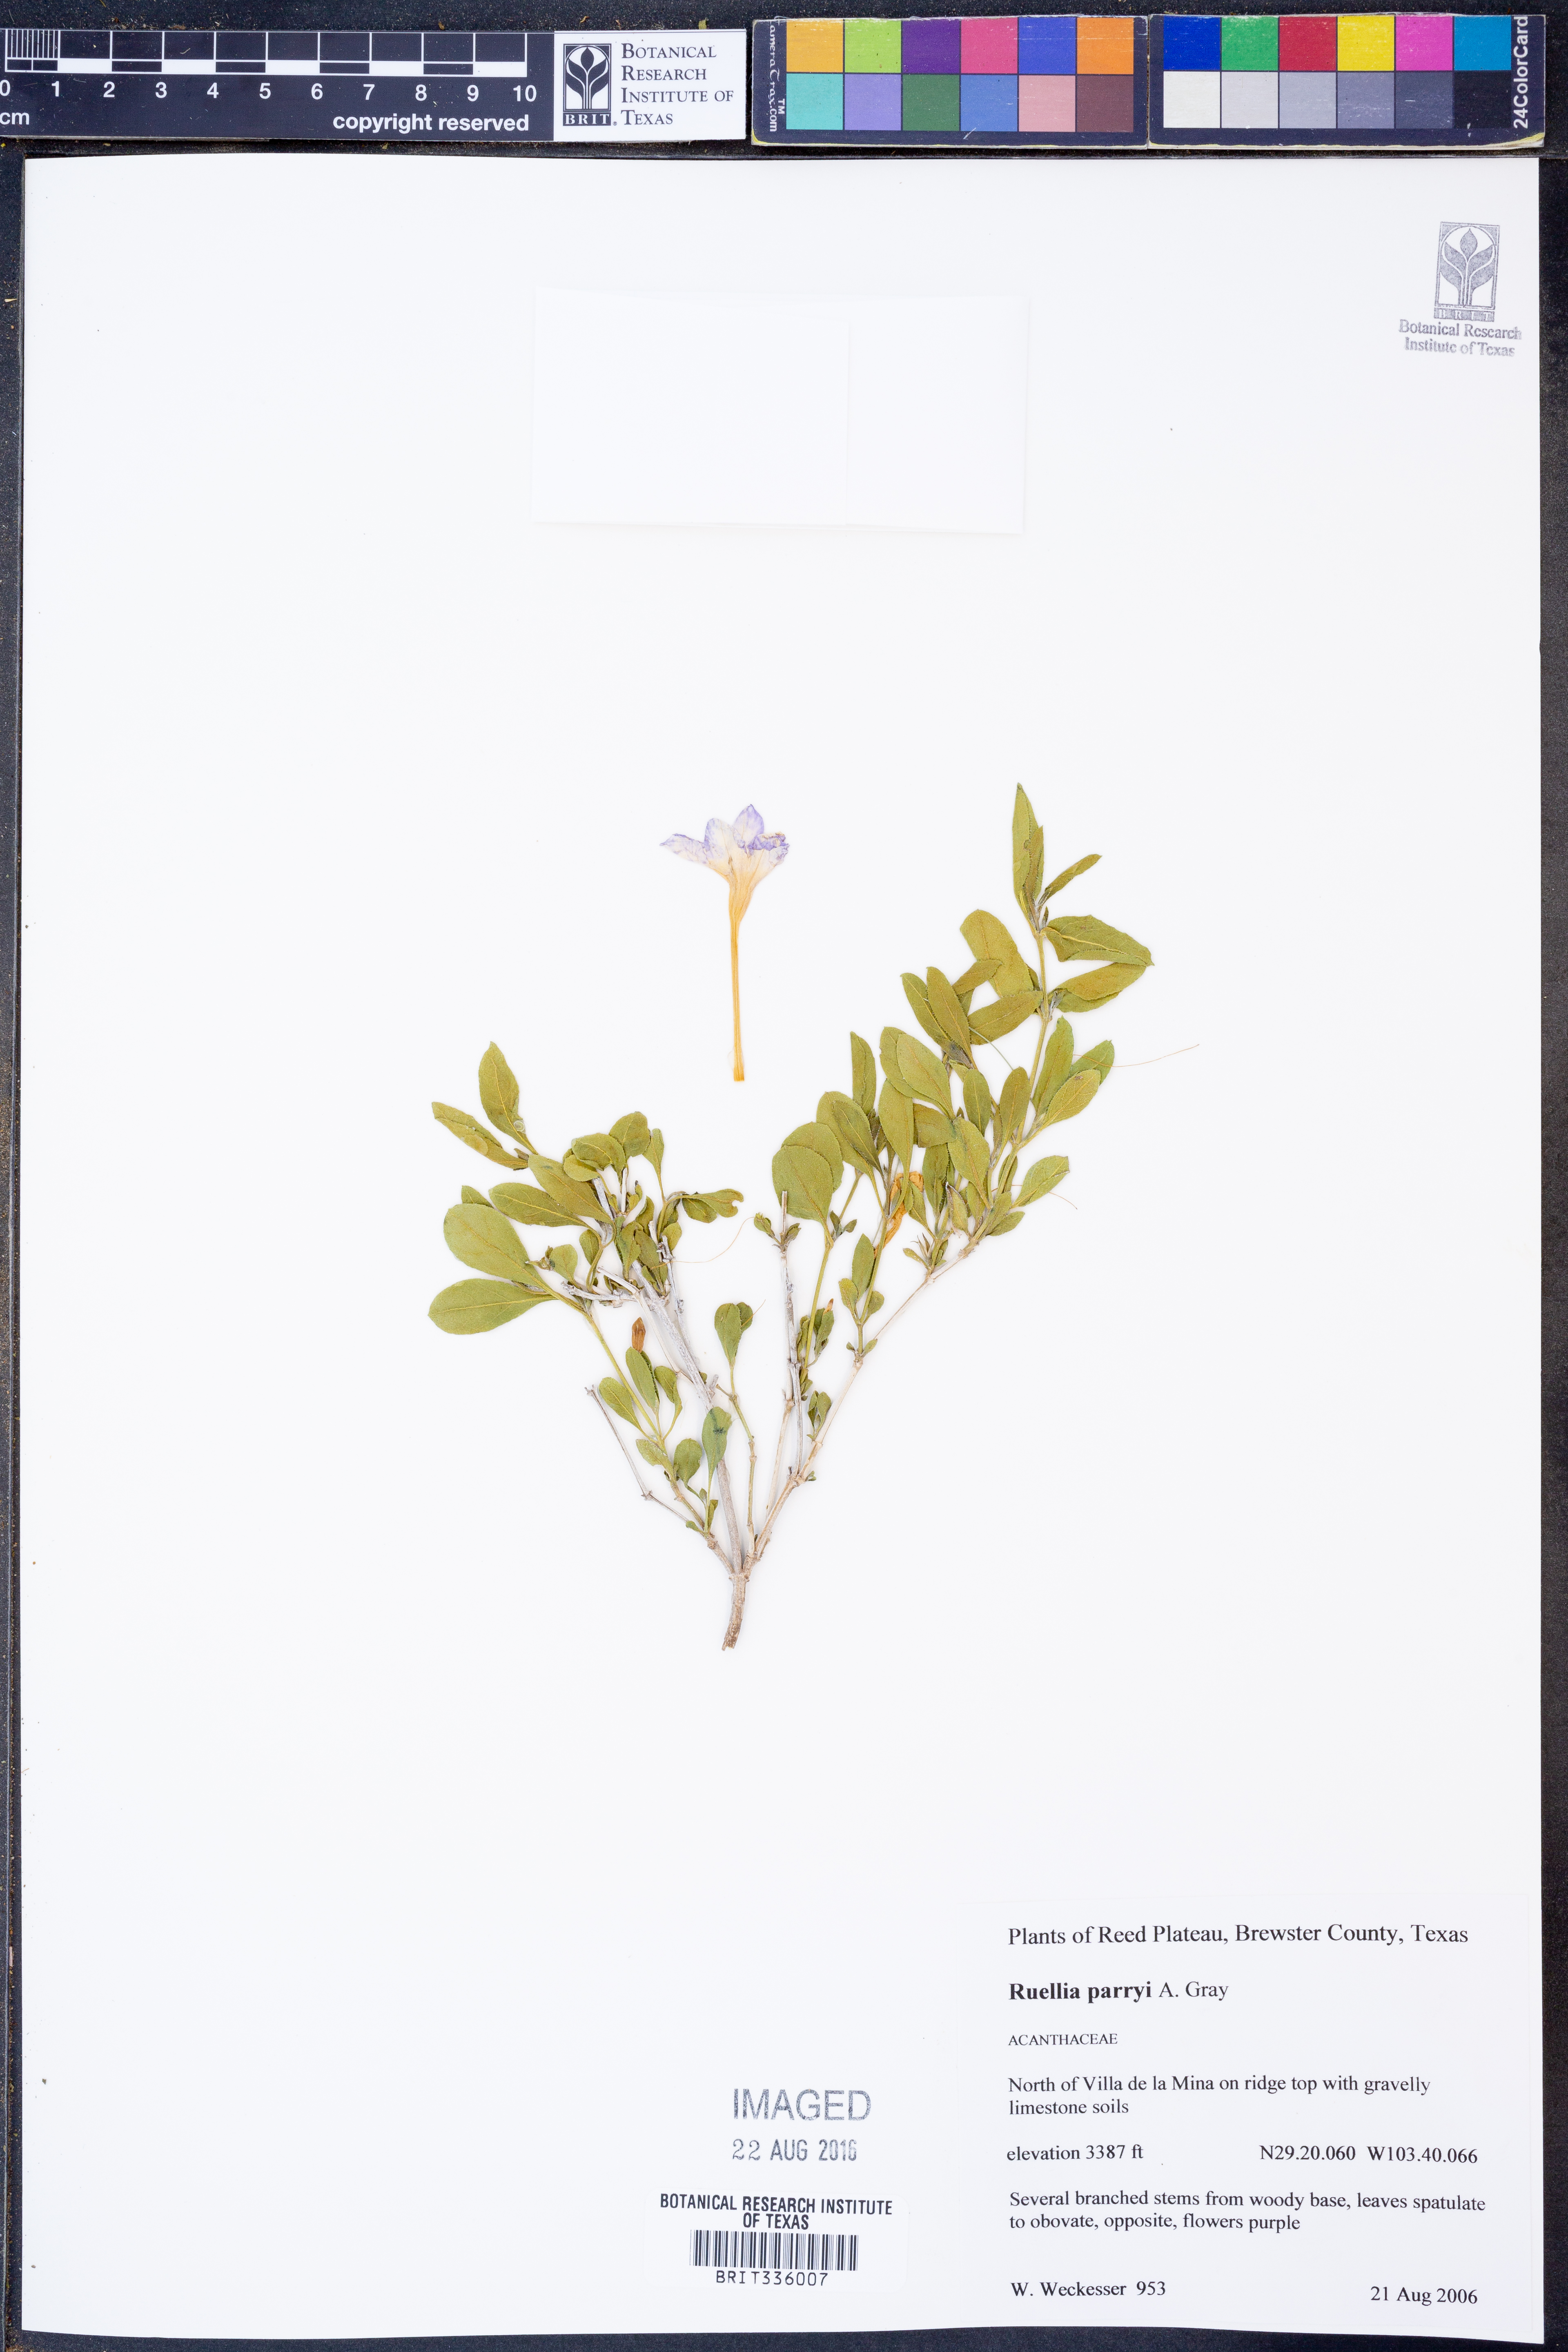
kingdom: Plantae
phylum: Tracheophyta
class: Magnoliopsida
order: Lamiales
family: Acanthaceae
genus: Ruellia
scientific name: Ruellia parryi
